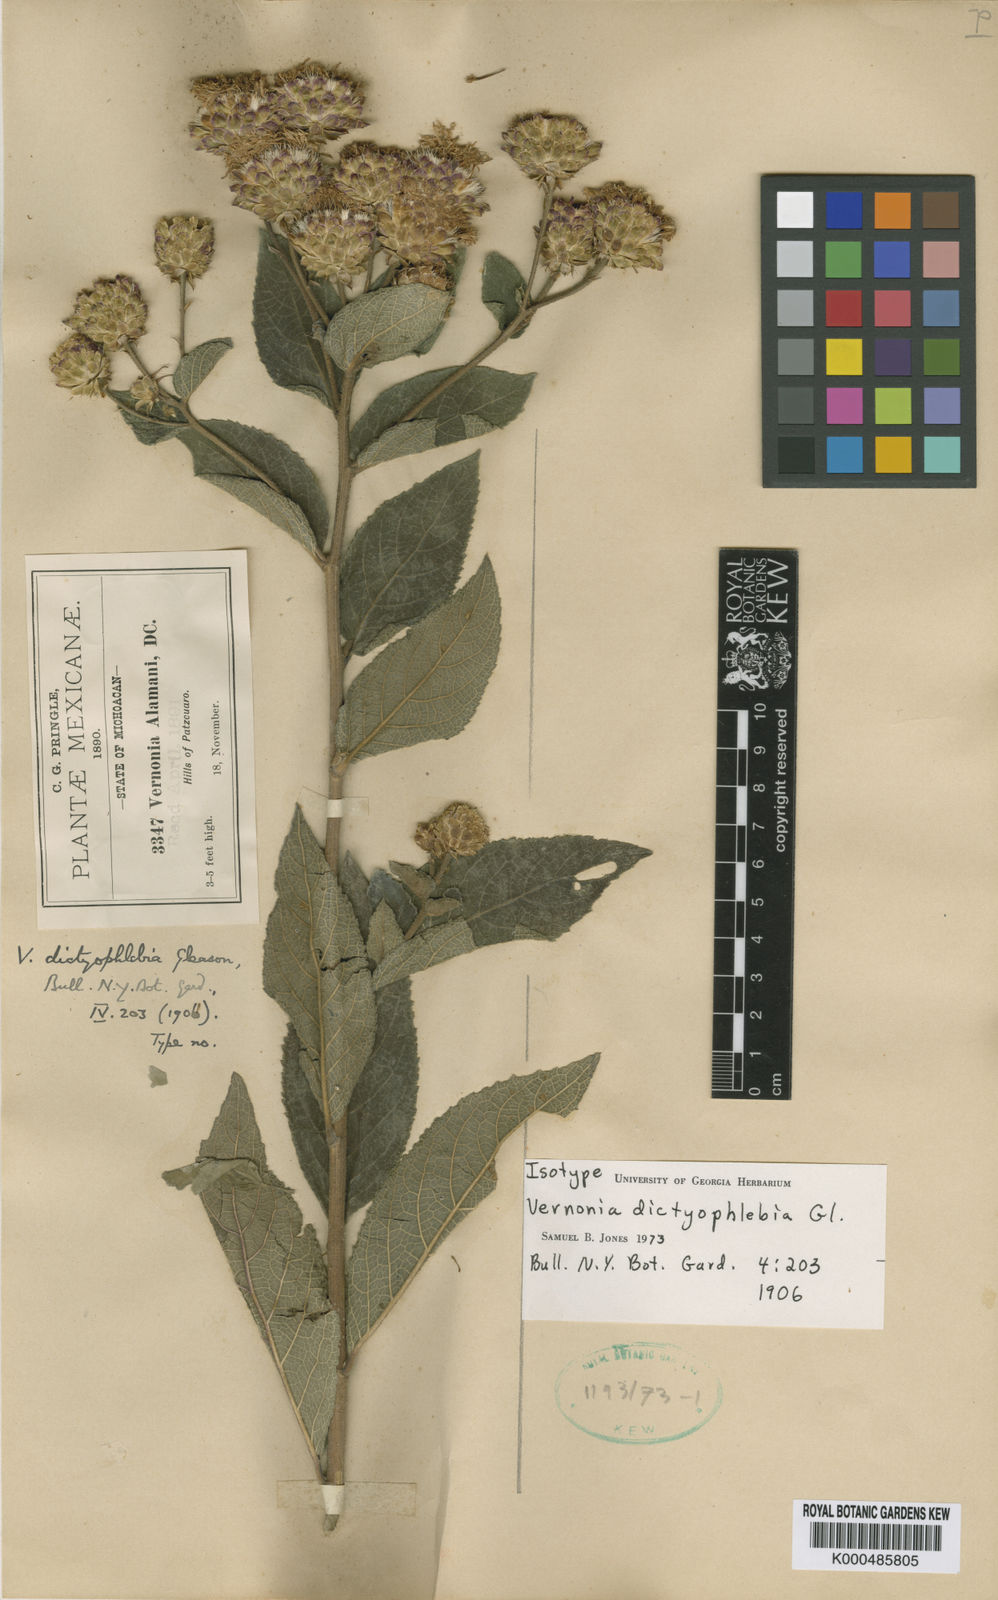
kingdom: Plantae
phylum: Tracheophyta
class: Magnoliopsida
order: Asterales
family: Asteraceae
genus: Vernonanthura
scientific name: Vernonanthura alamanii
